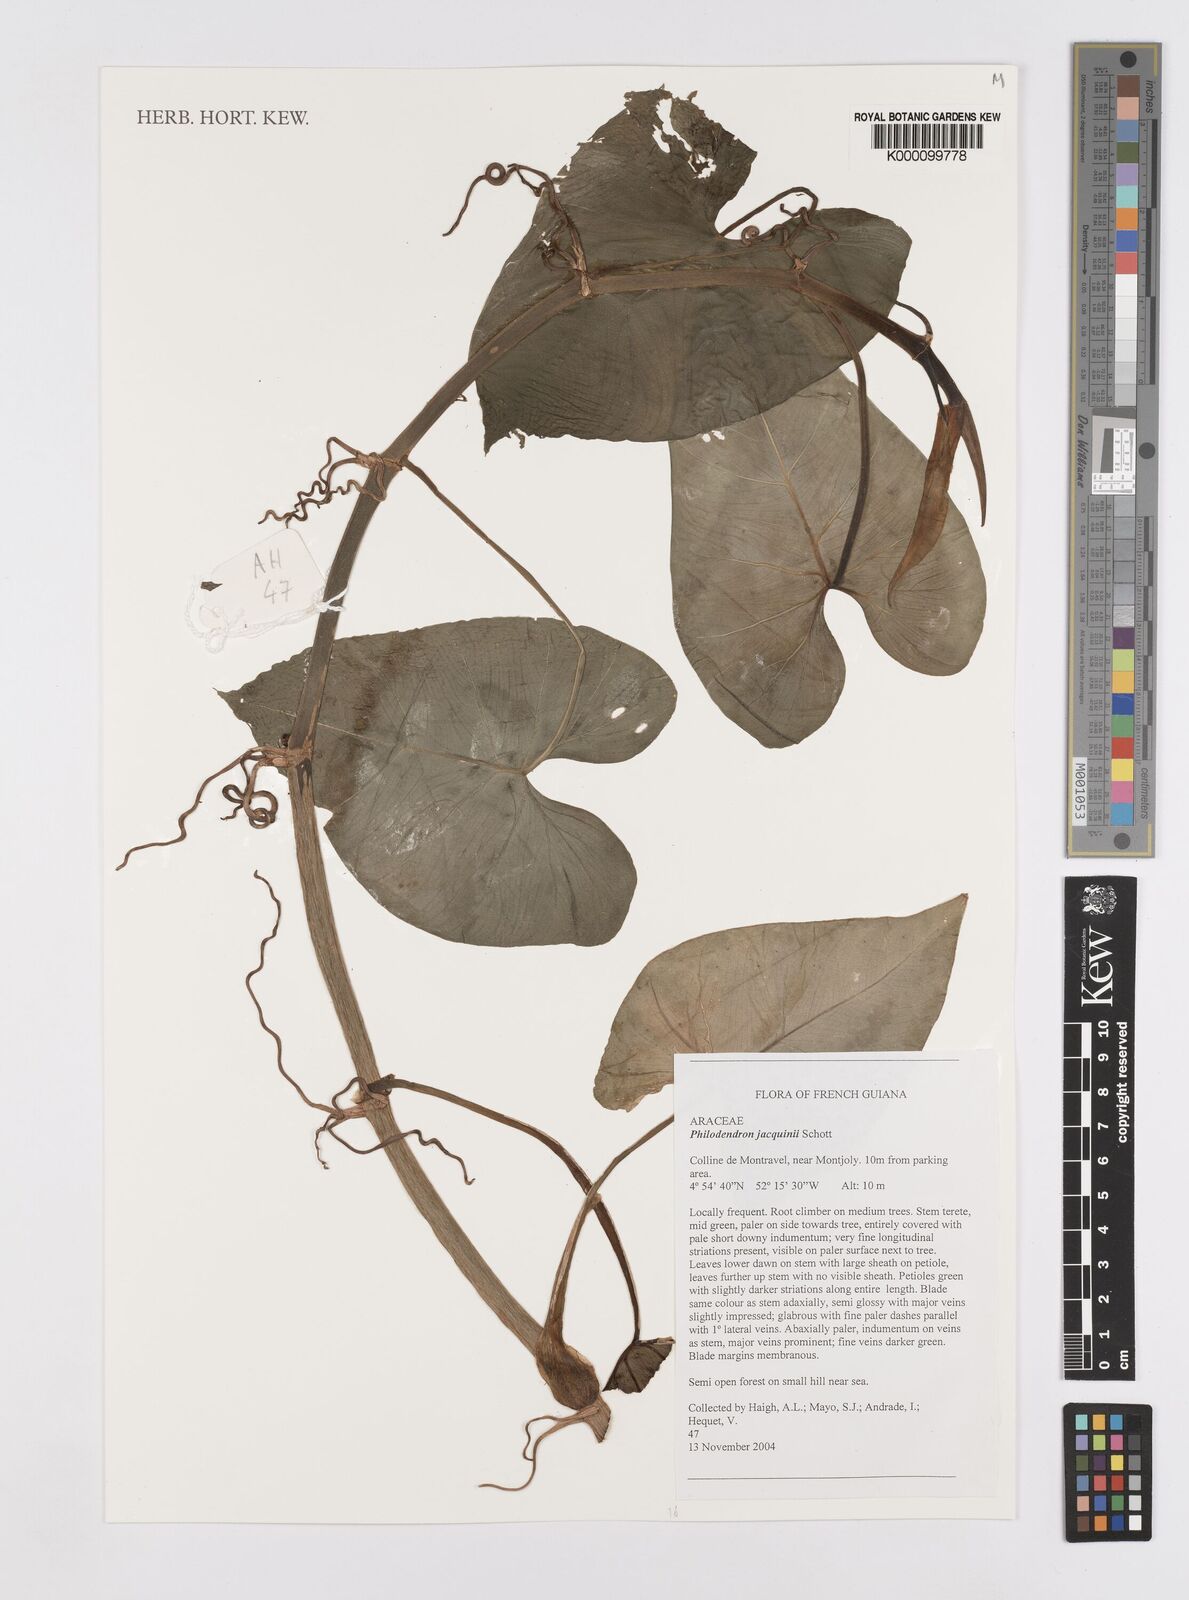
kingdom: Plantae
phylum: Tracheophyta
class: Liliopsida
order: Alismatales
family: Araceae
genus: Philodendron
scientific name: Philodendron jacquinii
